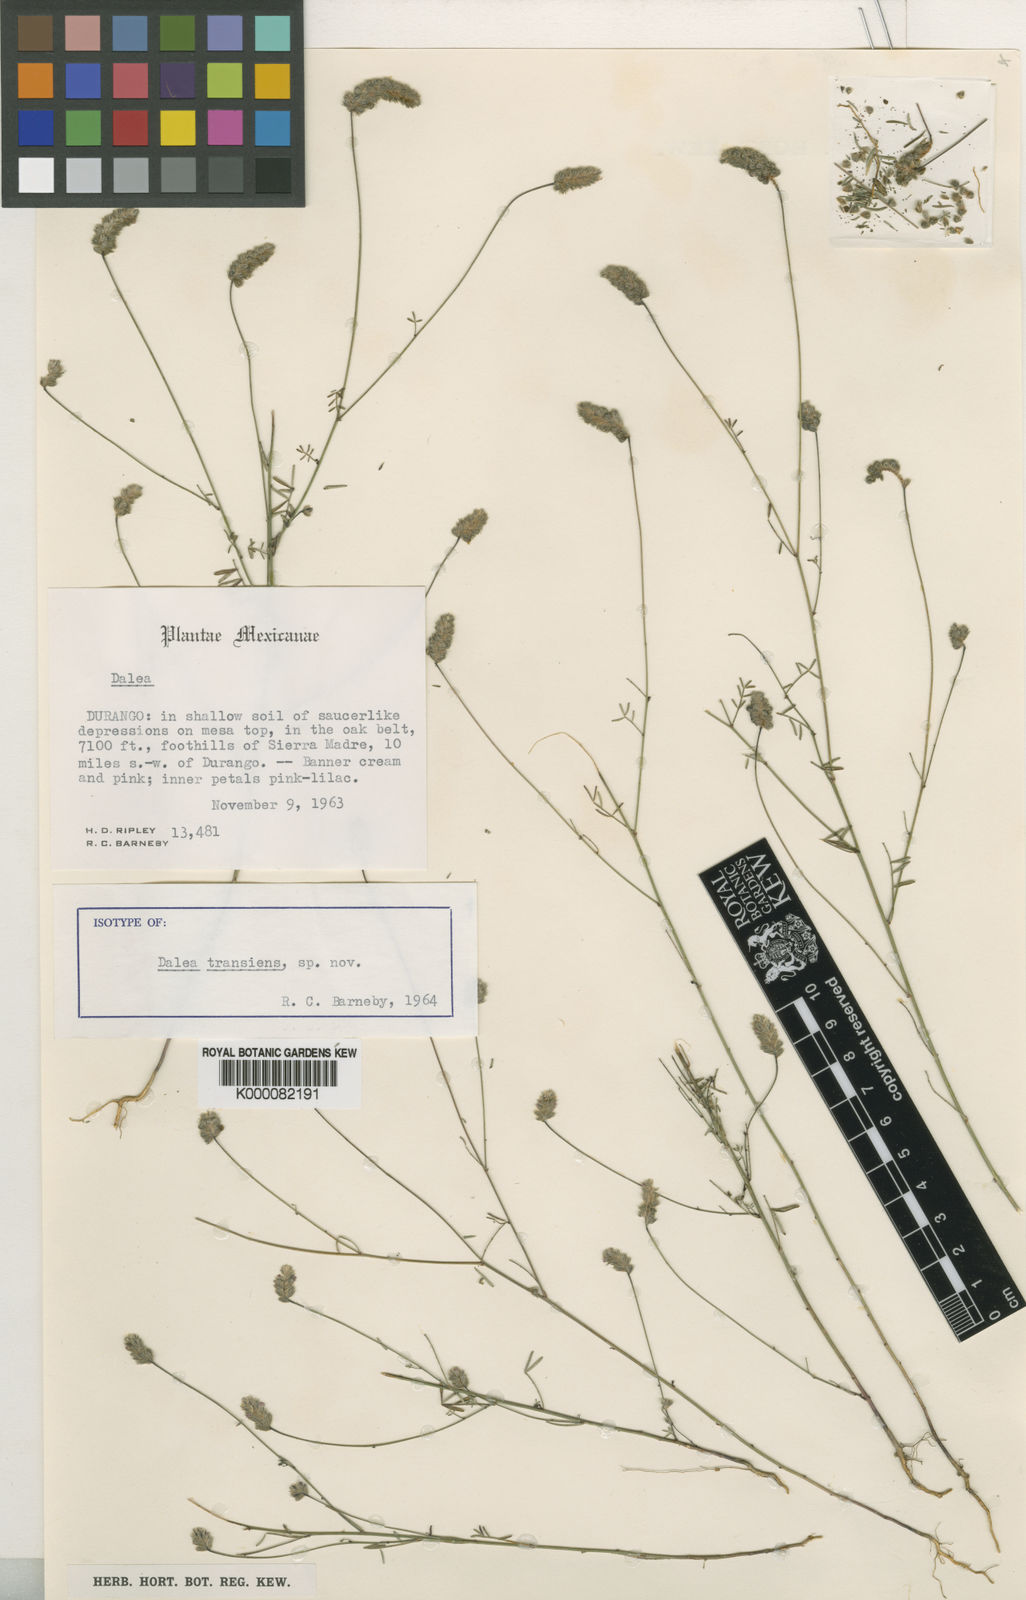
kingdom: Plantae
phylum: Tracheophyta
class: Magnoliopsida
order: Fabales
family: Fabaceae
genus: Dalea
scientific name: Dalea transiens
